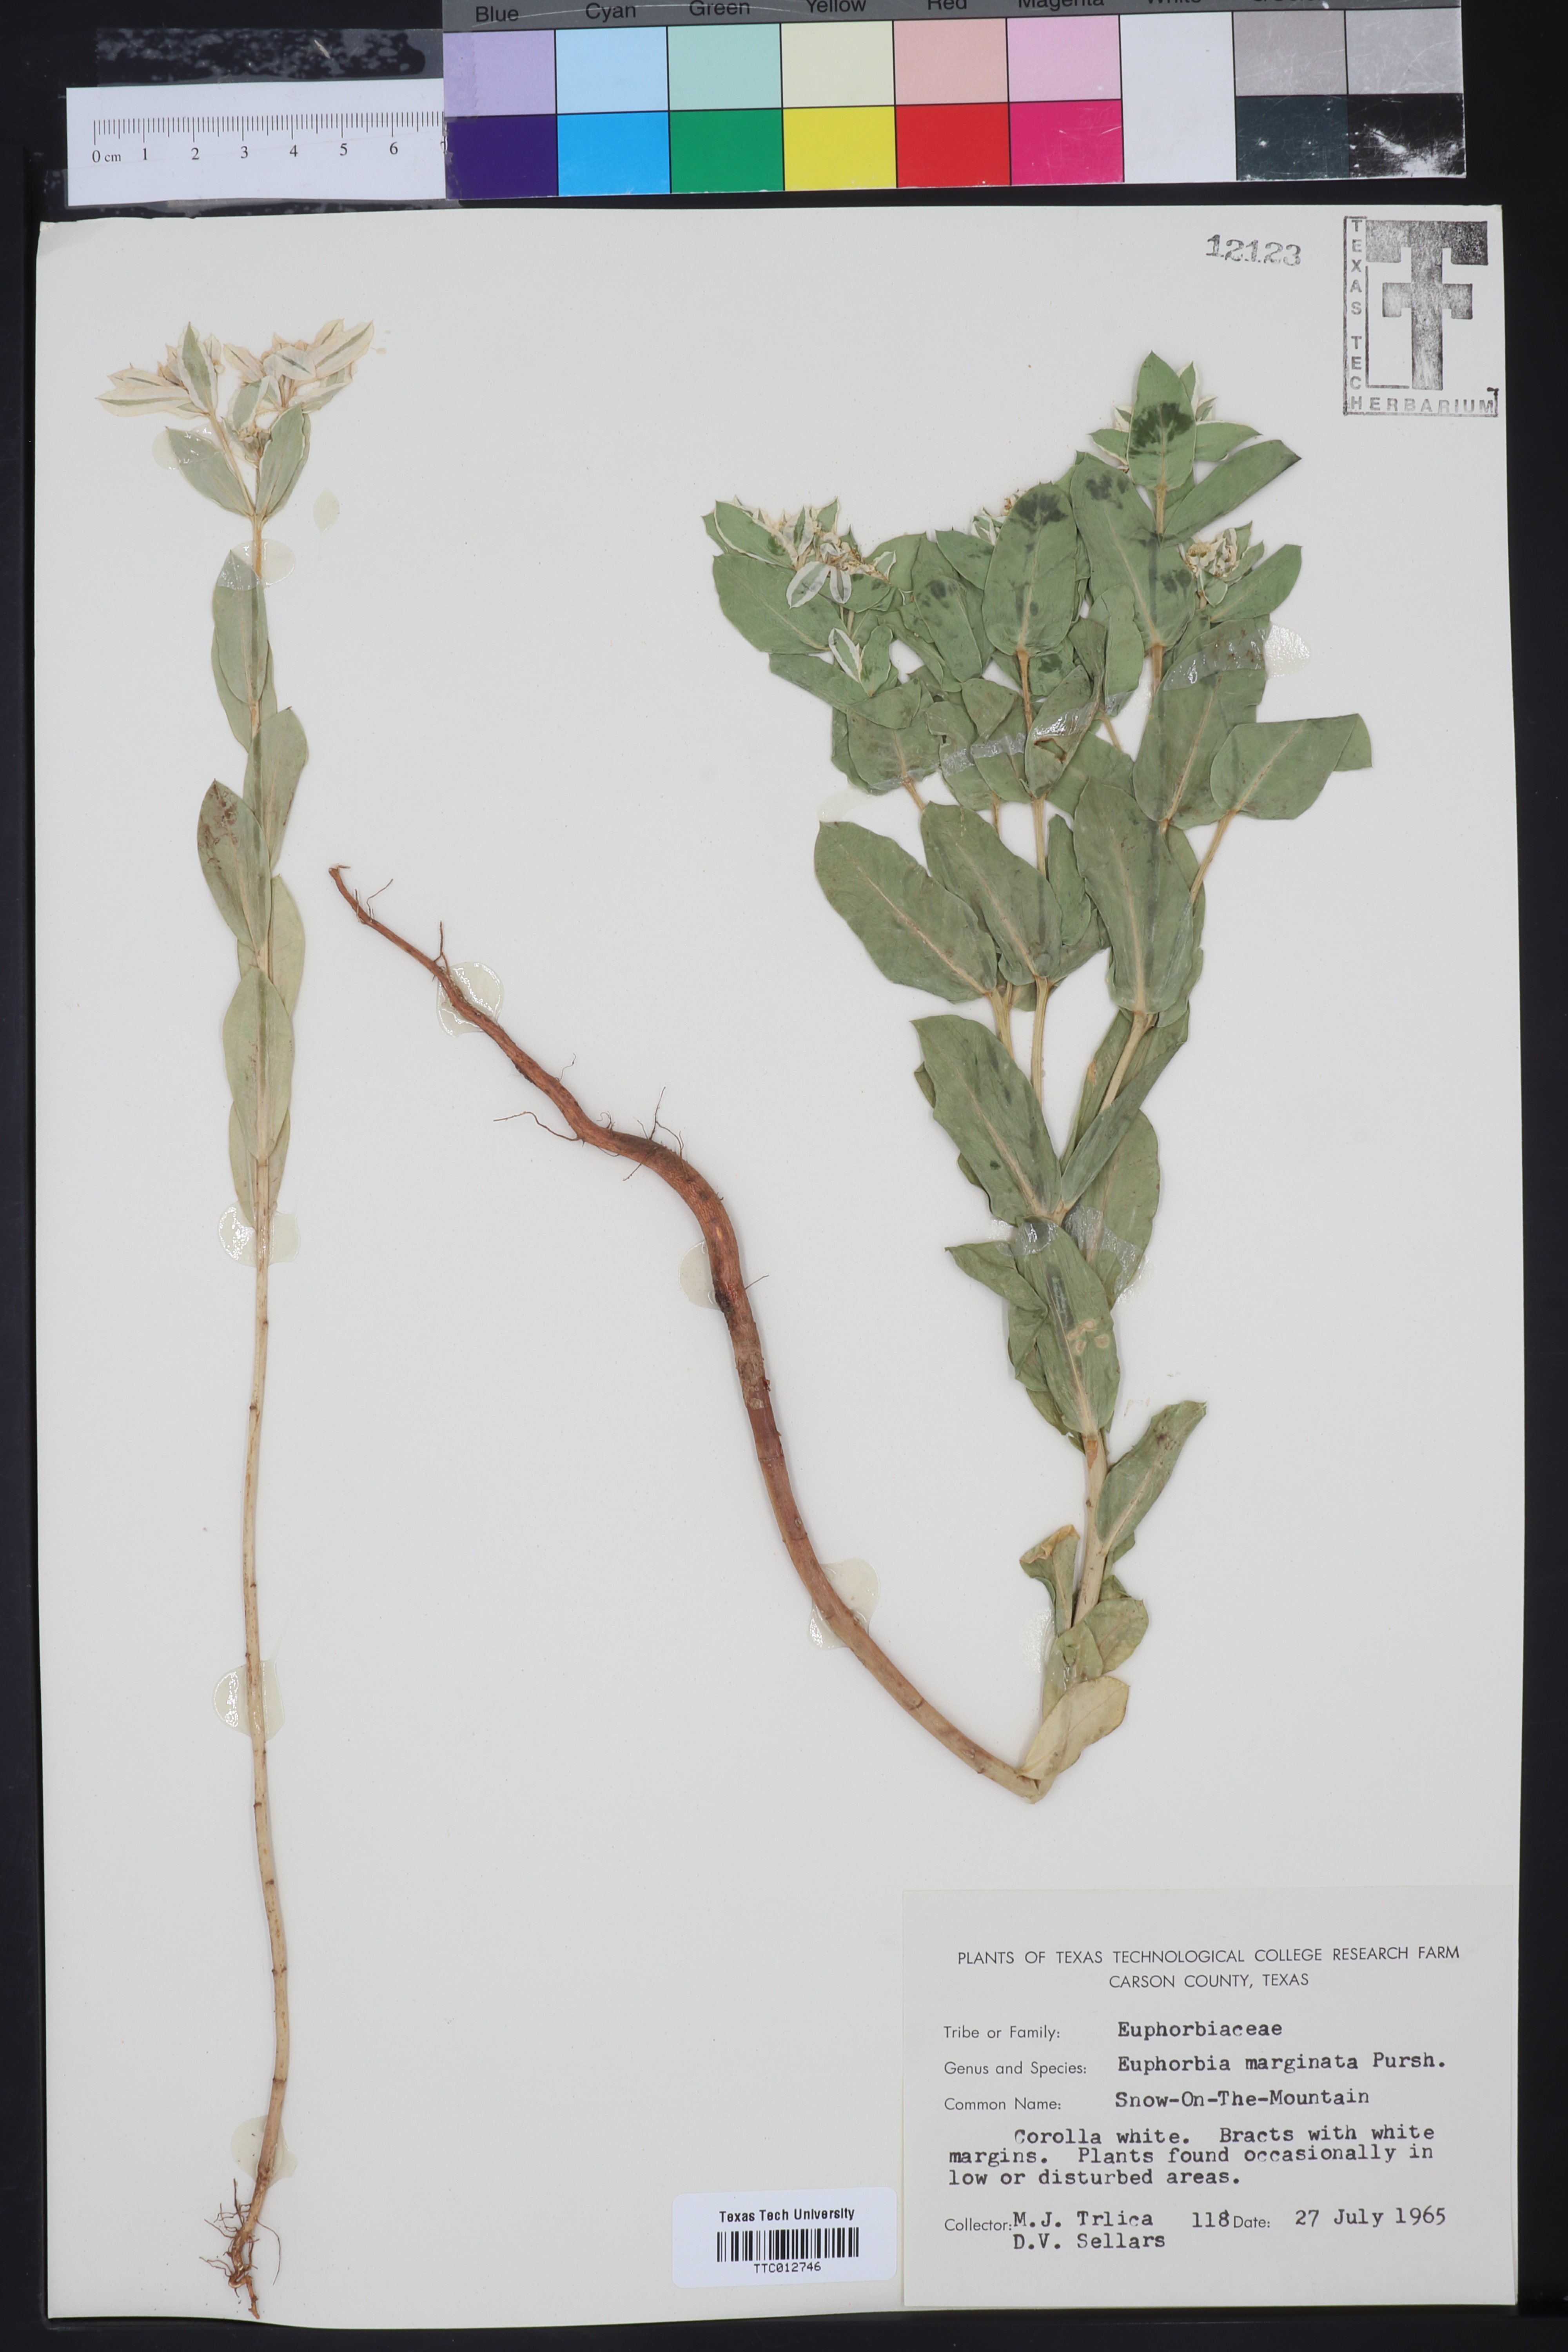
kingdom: Plantae
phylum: Tracheophyta
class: Magnoliopsida
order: Malpighiales
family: Euphorbiaceae
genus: Euphorbia
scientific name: Euphorbia marginata
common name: Ghostweed
